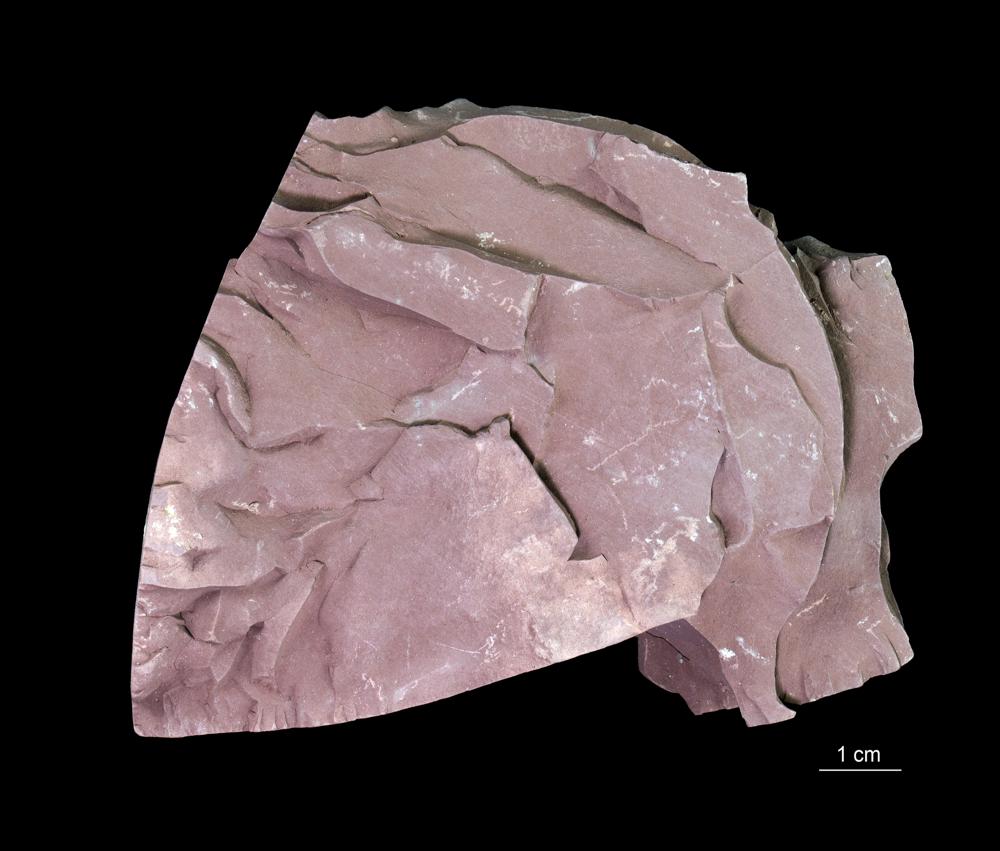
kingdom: Chromista
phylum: Foraminifera
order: Astrorhizida
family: Hyperamminidae
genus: Platysolenites
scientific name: Platysolenites
